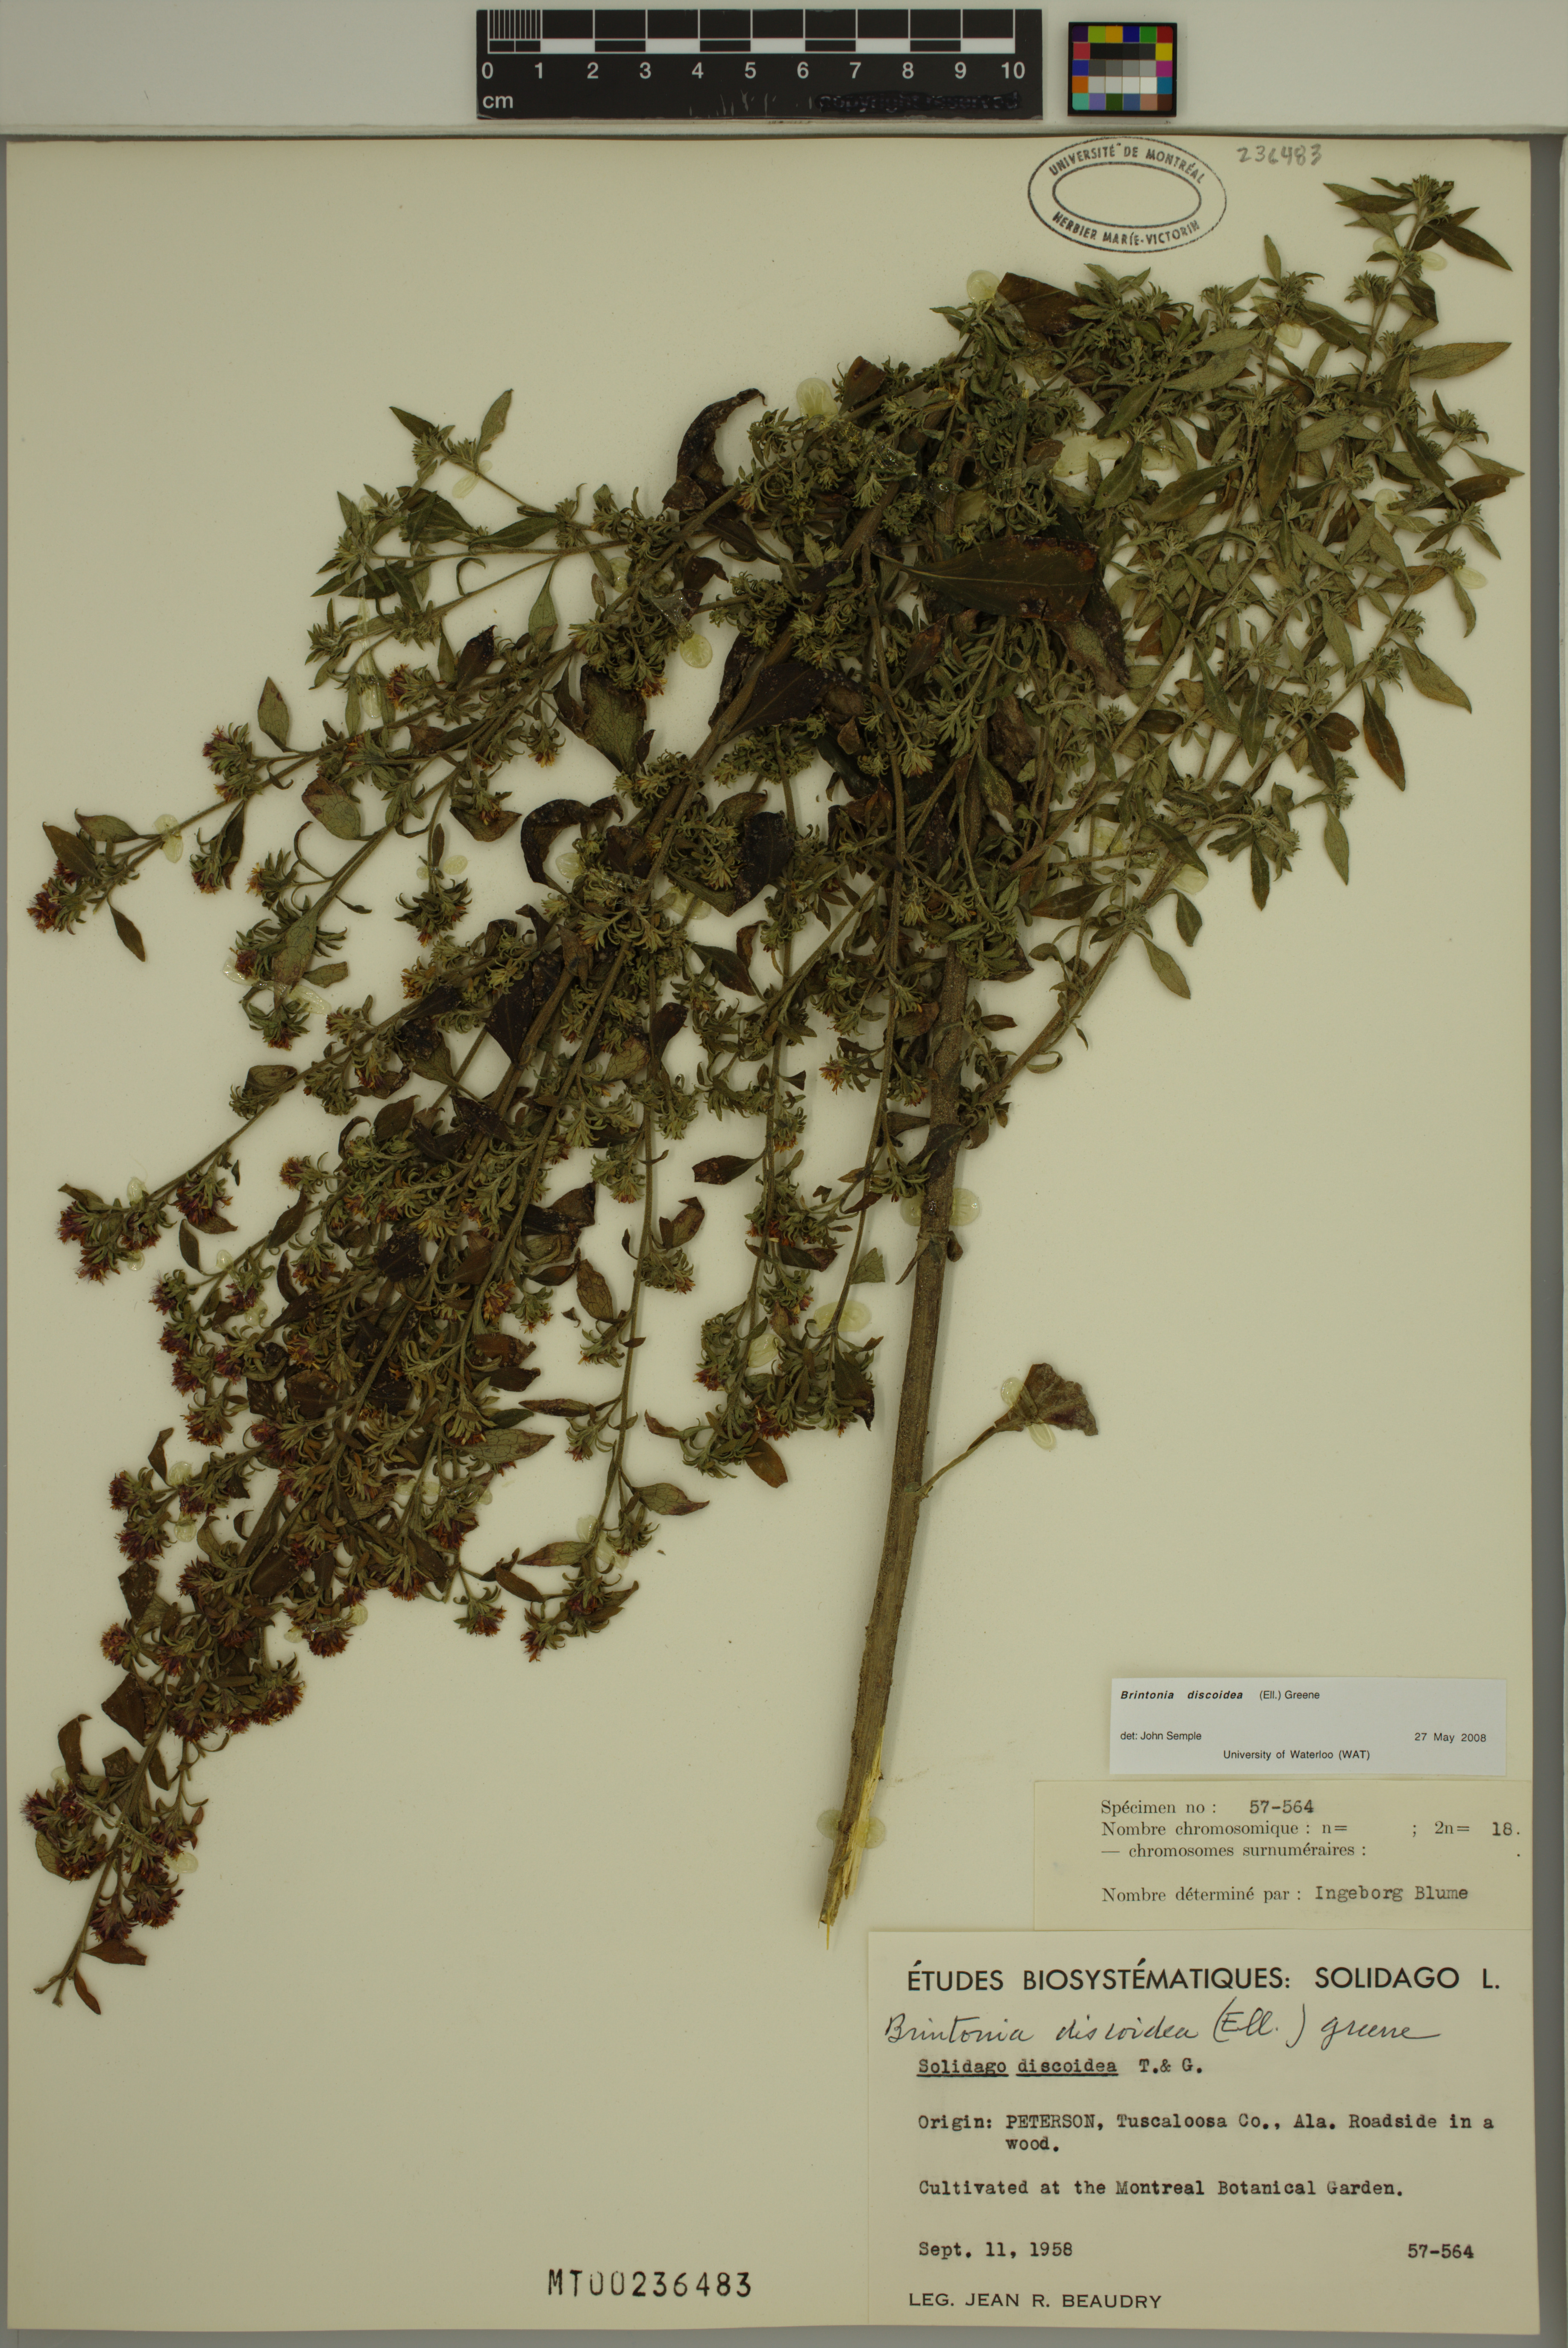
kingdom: Plantae
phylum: Tracheophyta
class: Magnoliopsida
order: Asterales
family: Asteraceae
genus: Solidago
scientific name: Solidago discoidea
